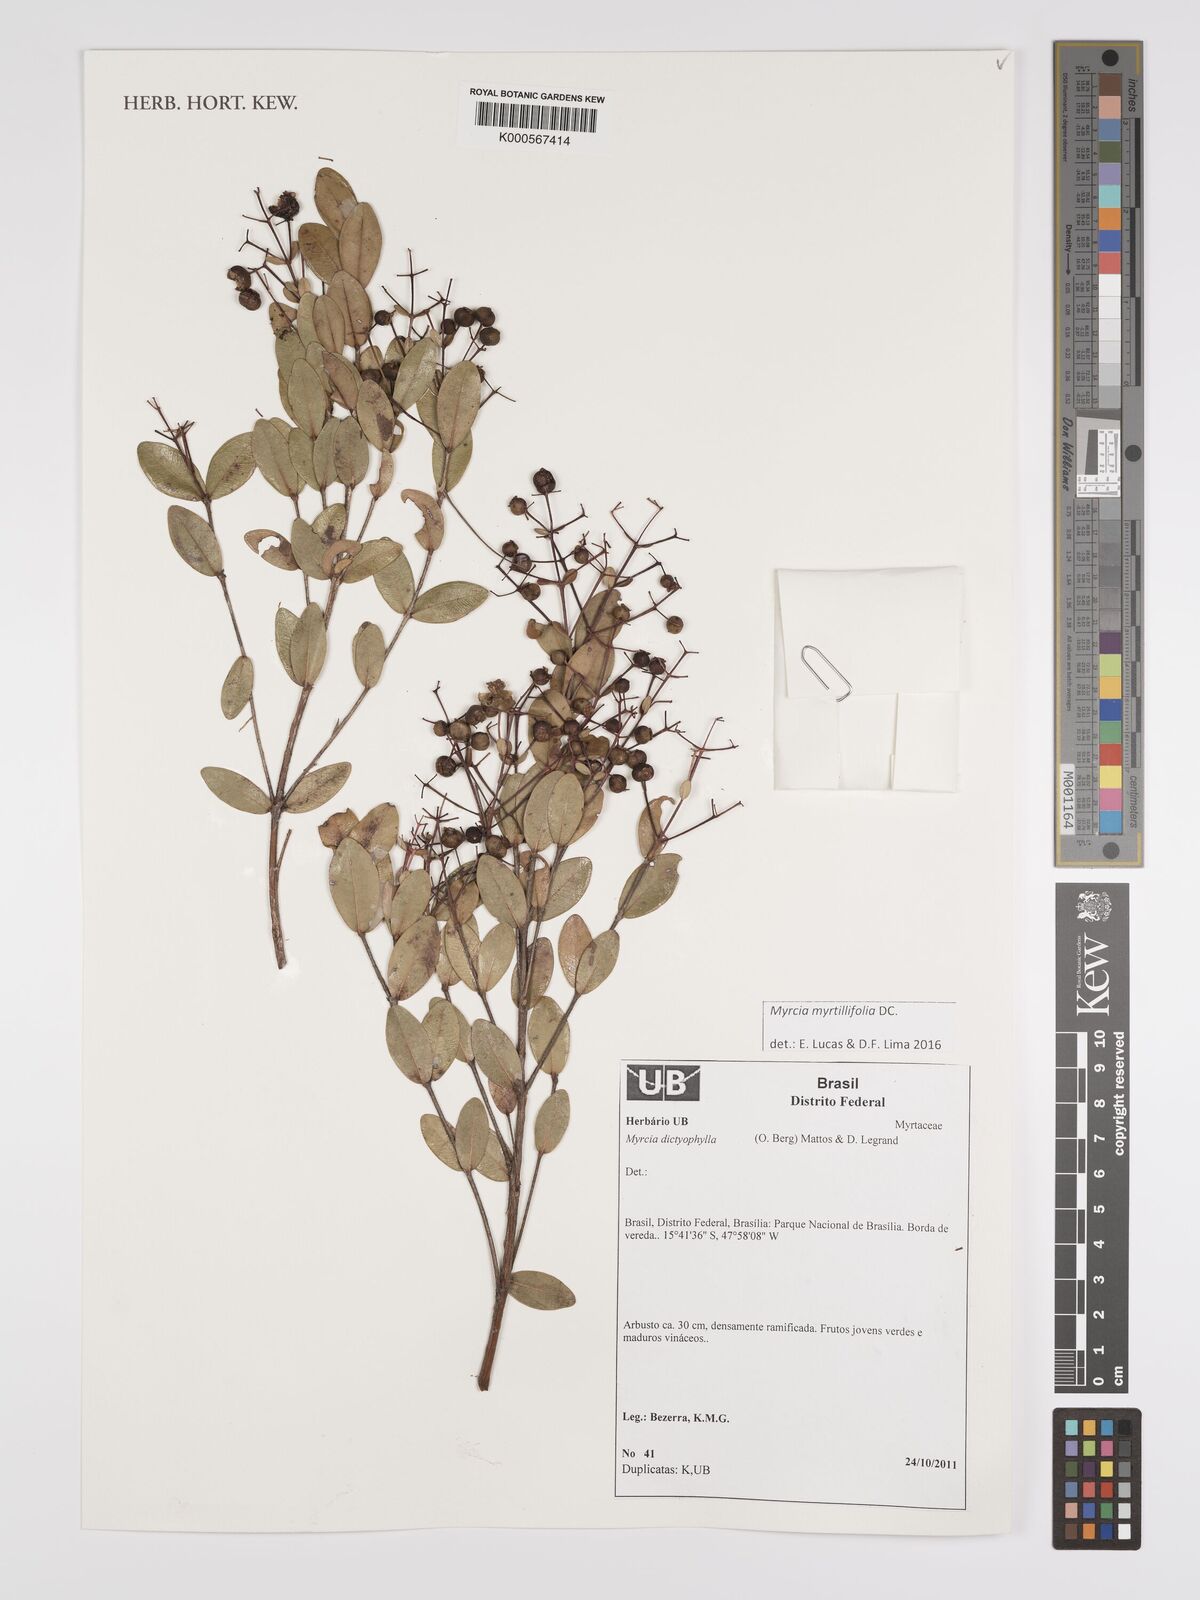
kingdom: Plantae
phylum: Tracheophyta
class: Magnoliopsida
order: Myrtales
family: Myrtaceae
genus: Myrcia
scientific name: Myrcia guianensis
